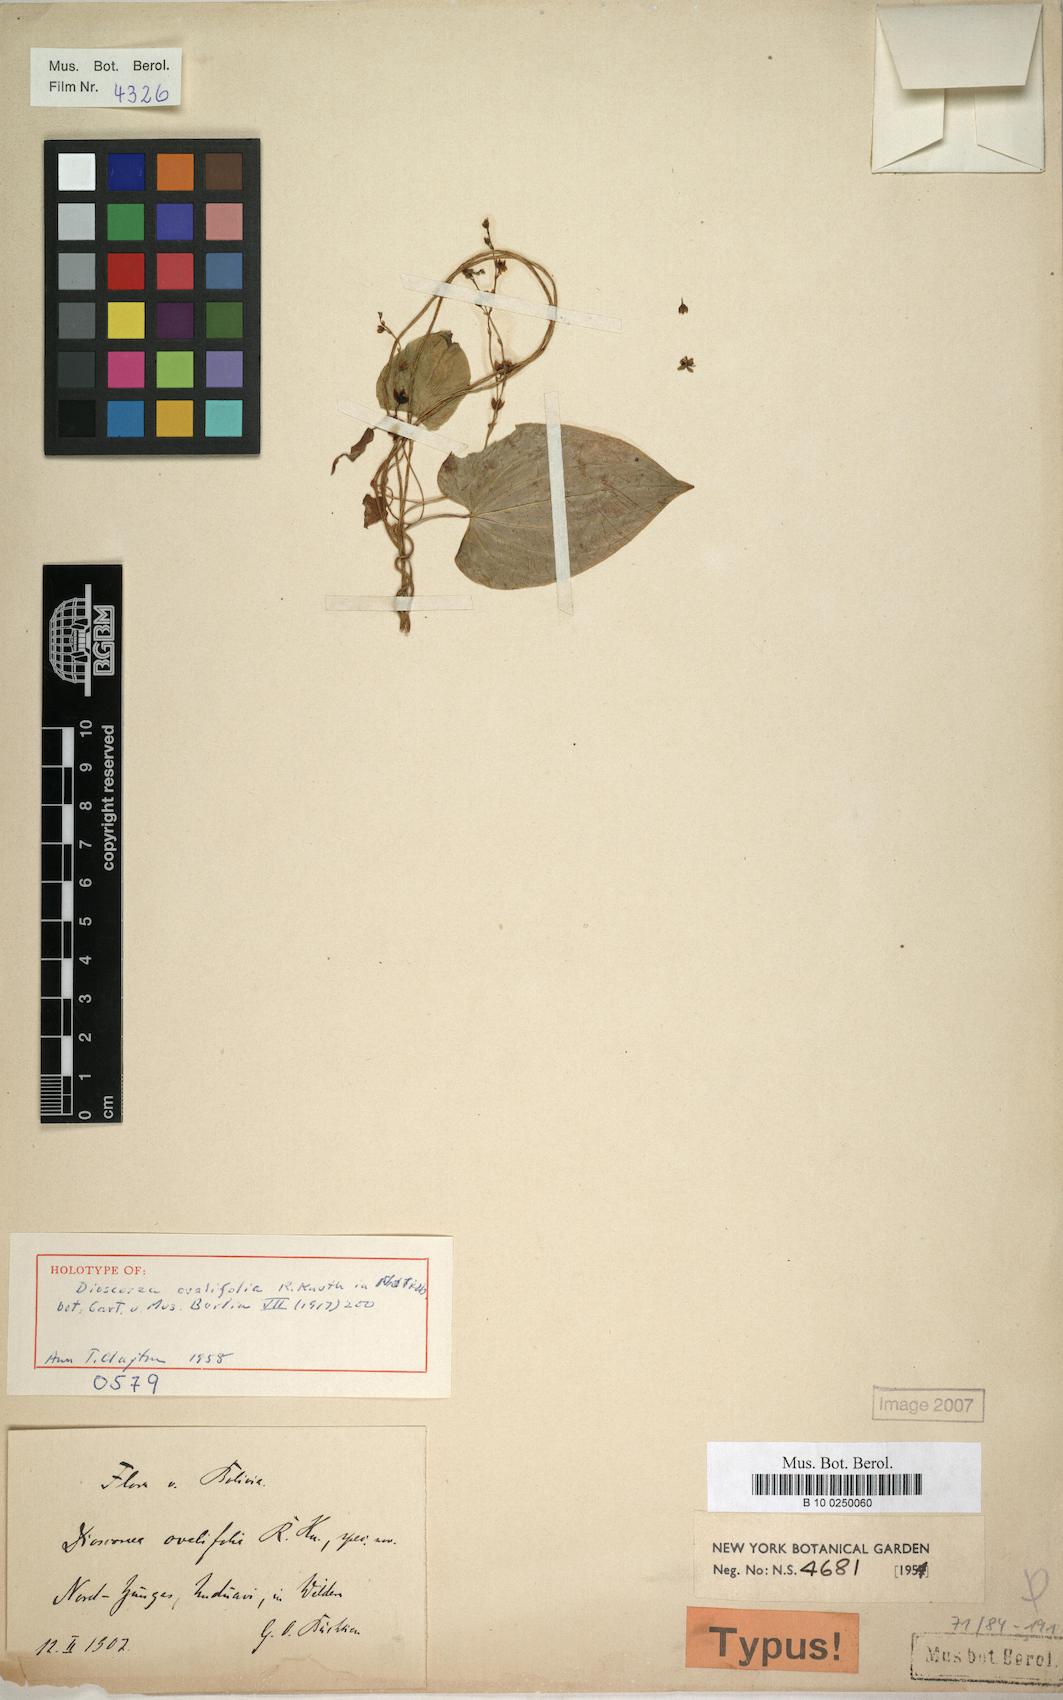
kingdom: Plantae
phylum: Tracheophyta
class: Liliopsida
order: Dioscoreales
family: Dioscoreaceae
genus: Dioscorea
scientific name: Dioscorea ovalifolia
